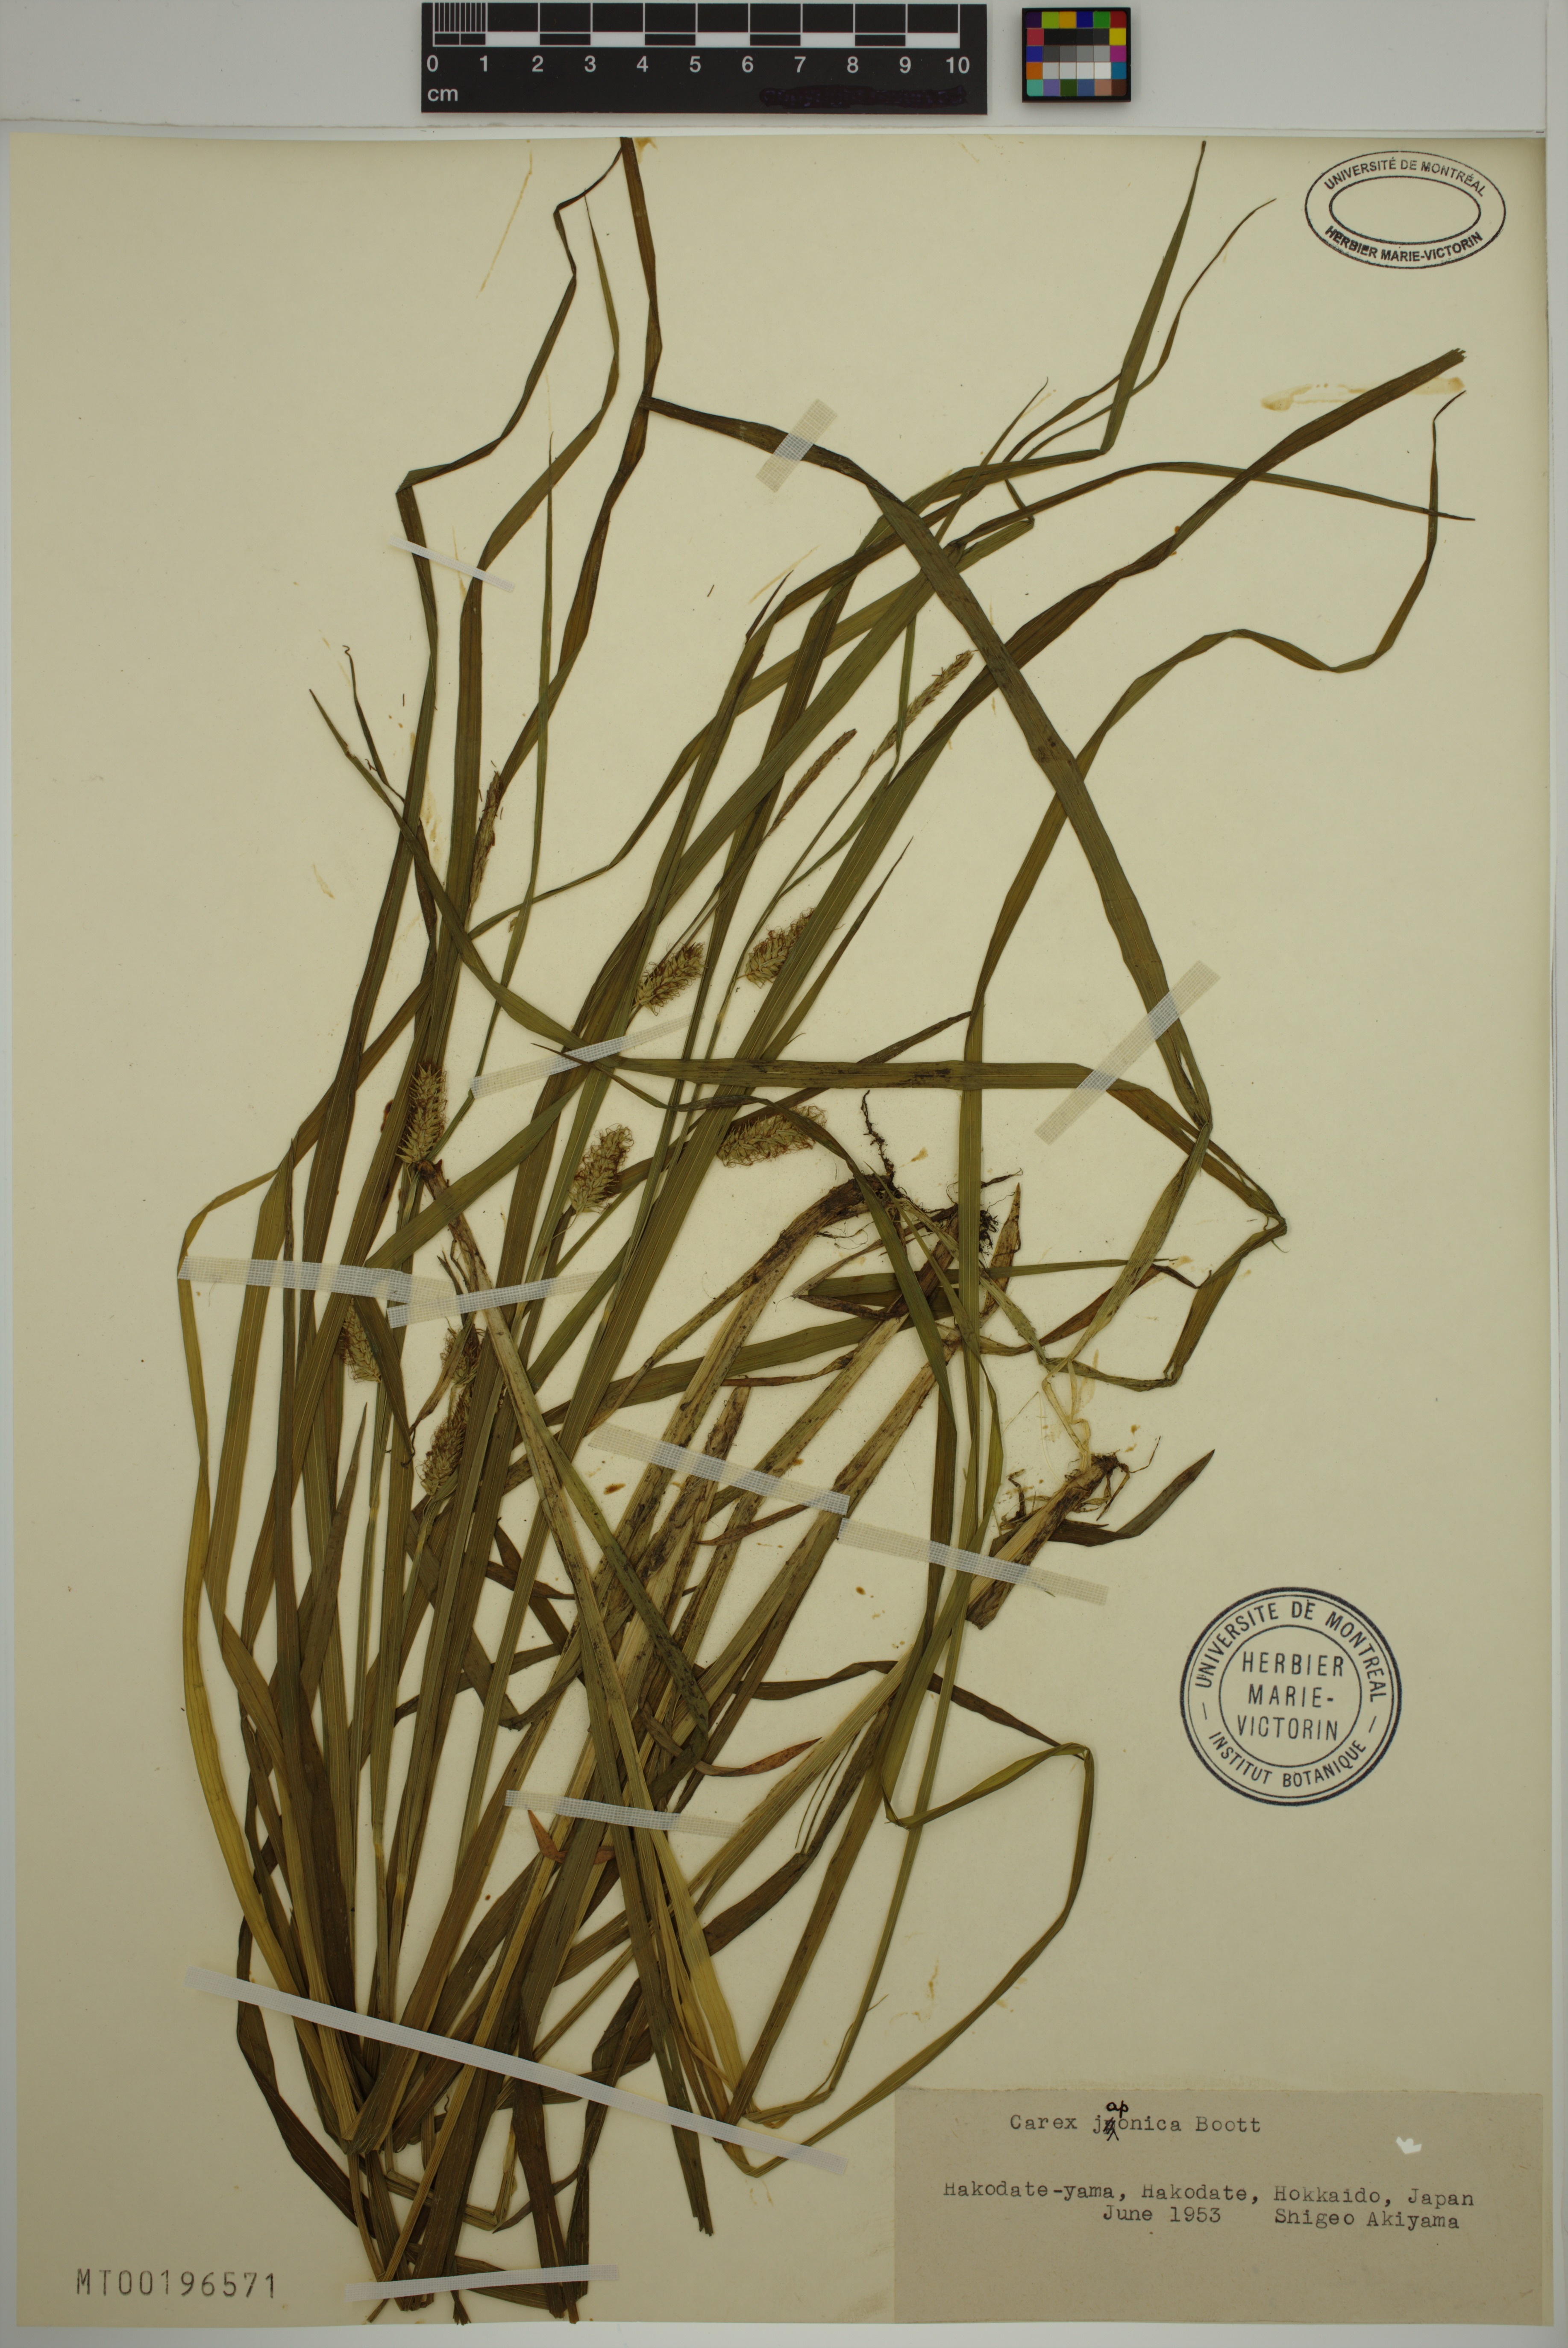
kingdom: Plantae
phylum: Tracheophyta
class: Liliopsida
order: Poales
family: Cyperaceae
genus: Carex
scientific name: Carex japonica
